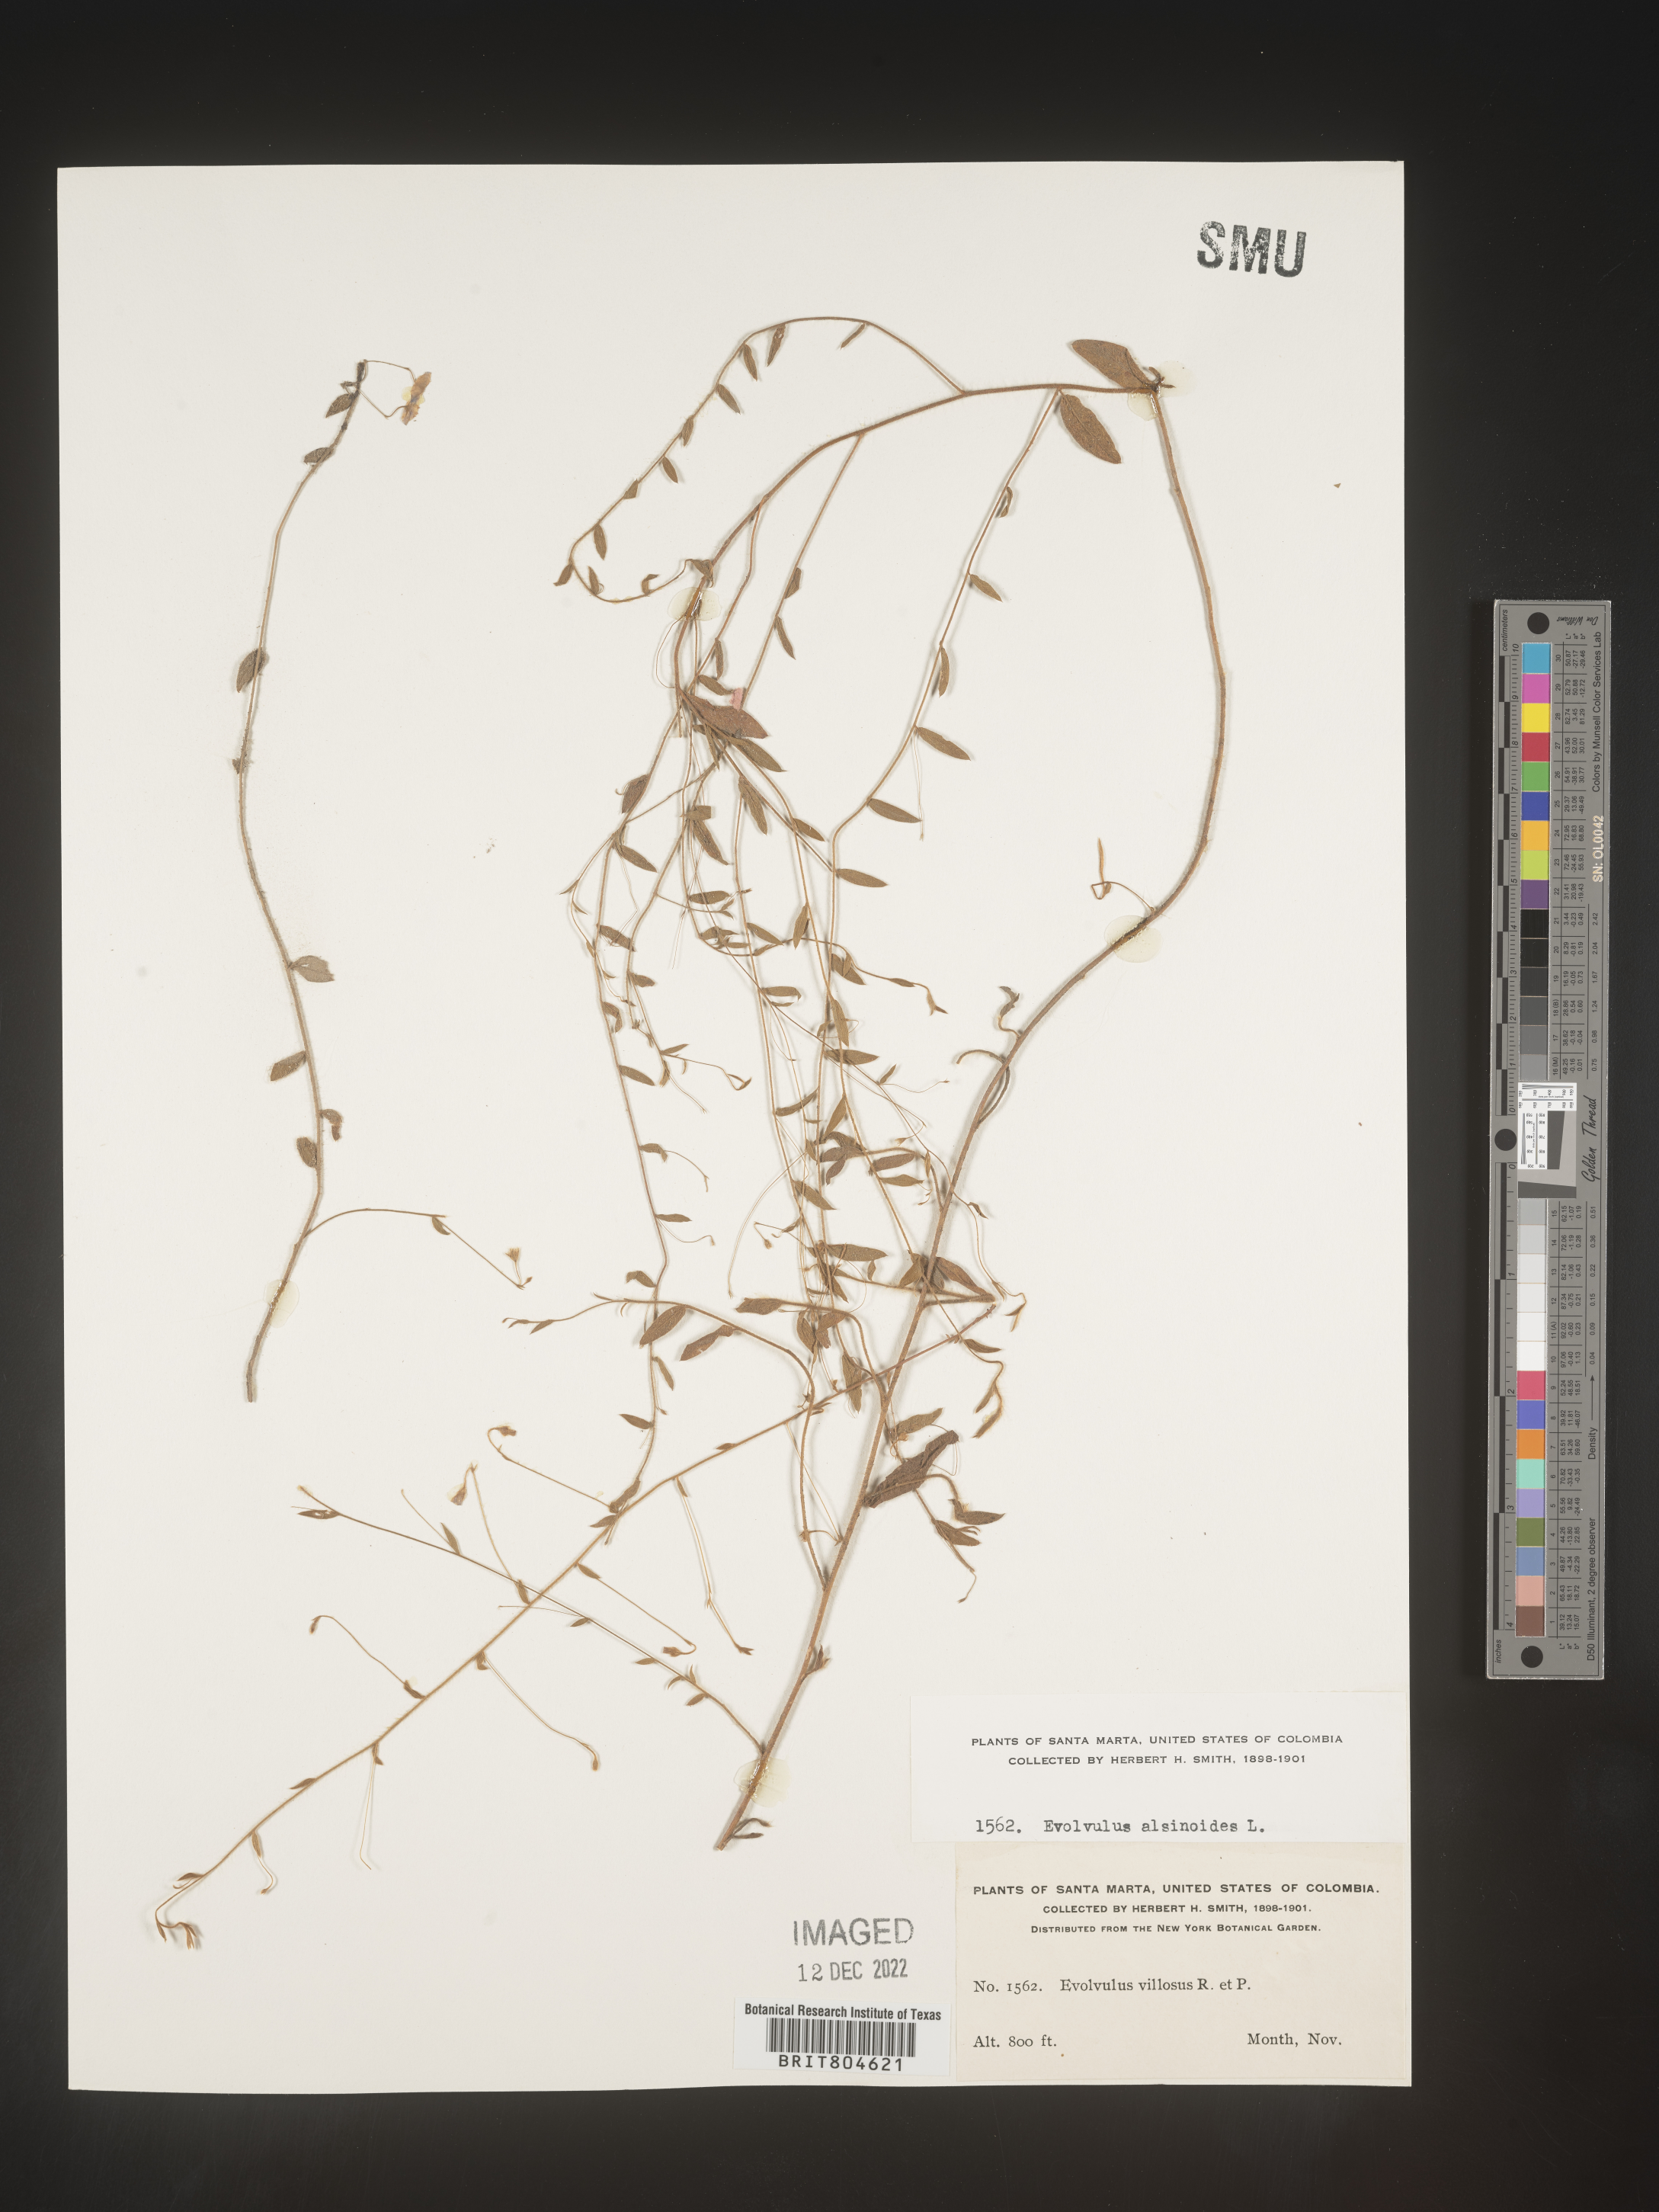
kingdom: Plantae
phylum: Tracheophyta
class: Magnoliopsida
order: Solanales
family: Convolvulaceae
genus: Evolvulus
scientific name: Evolvulus
